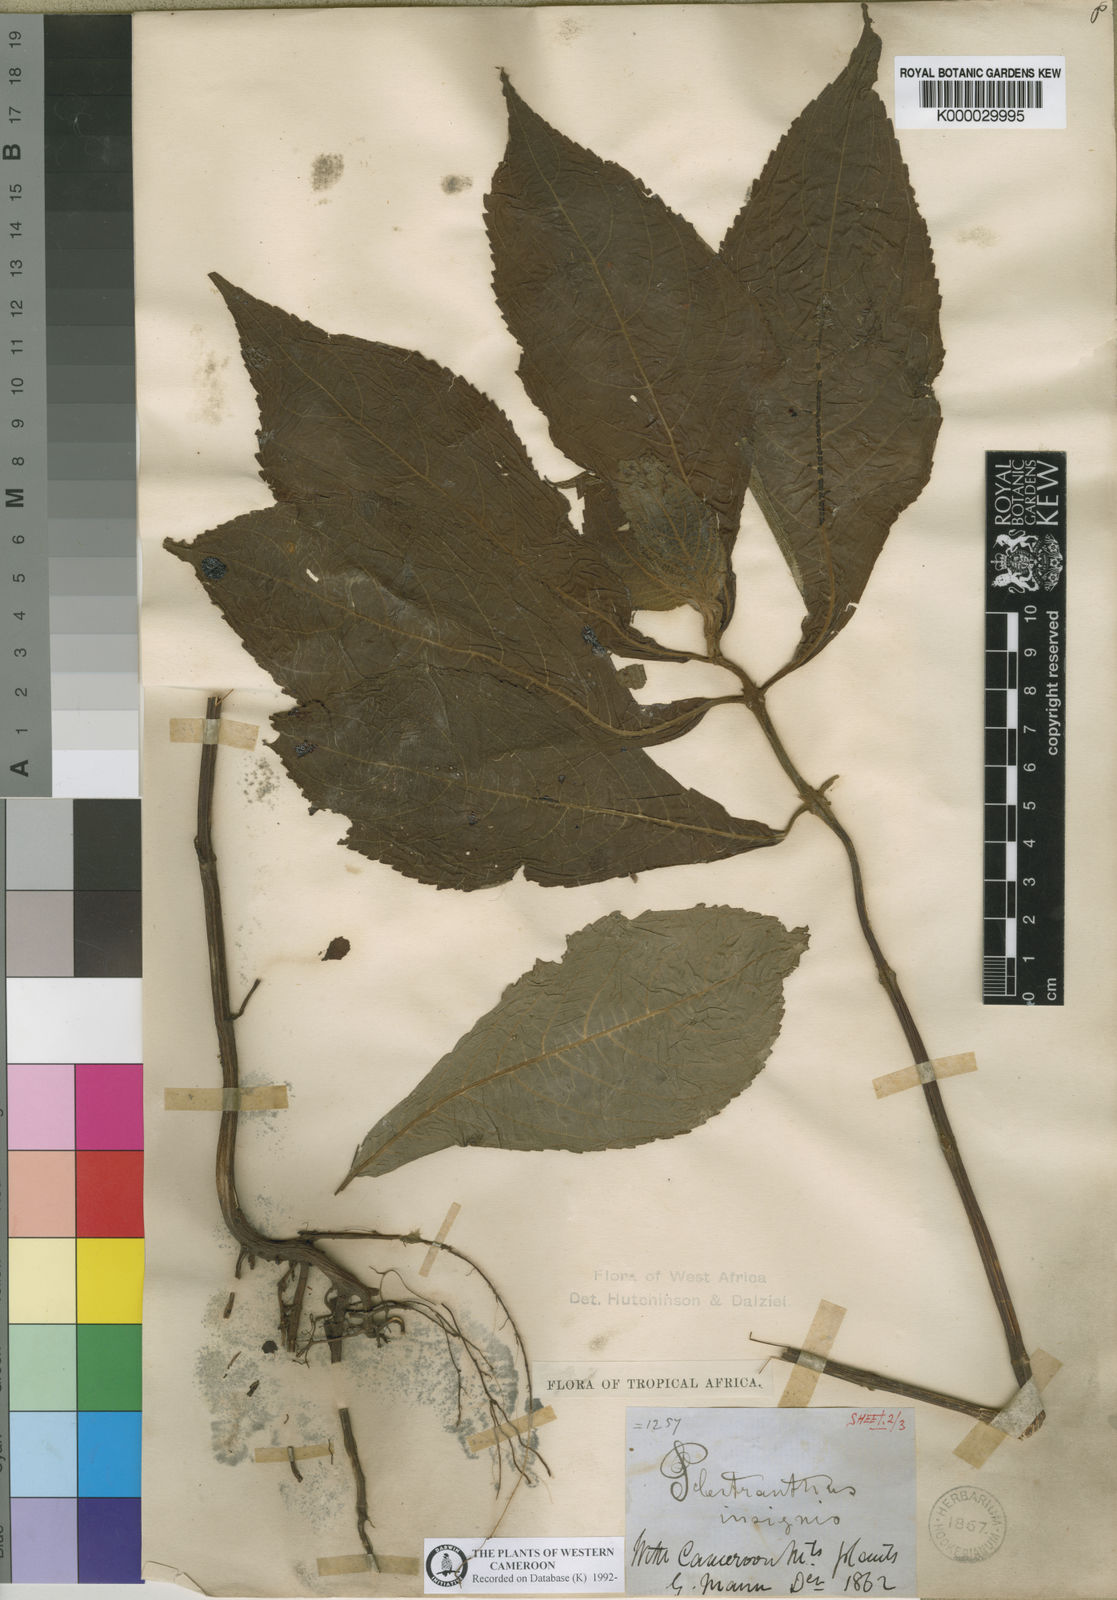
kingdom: Plantae
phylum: Tracheophyta
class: Magnoliopsida
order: Lamiales
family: Lamiaceae
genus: Coleus
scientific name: Coleus insignis
